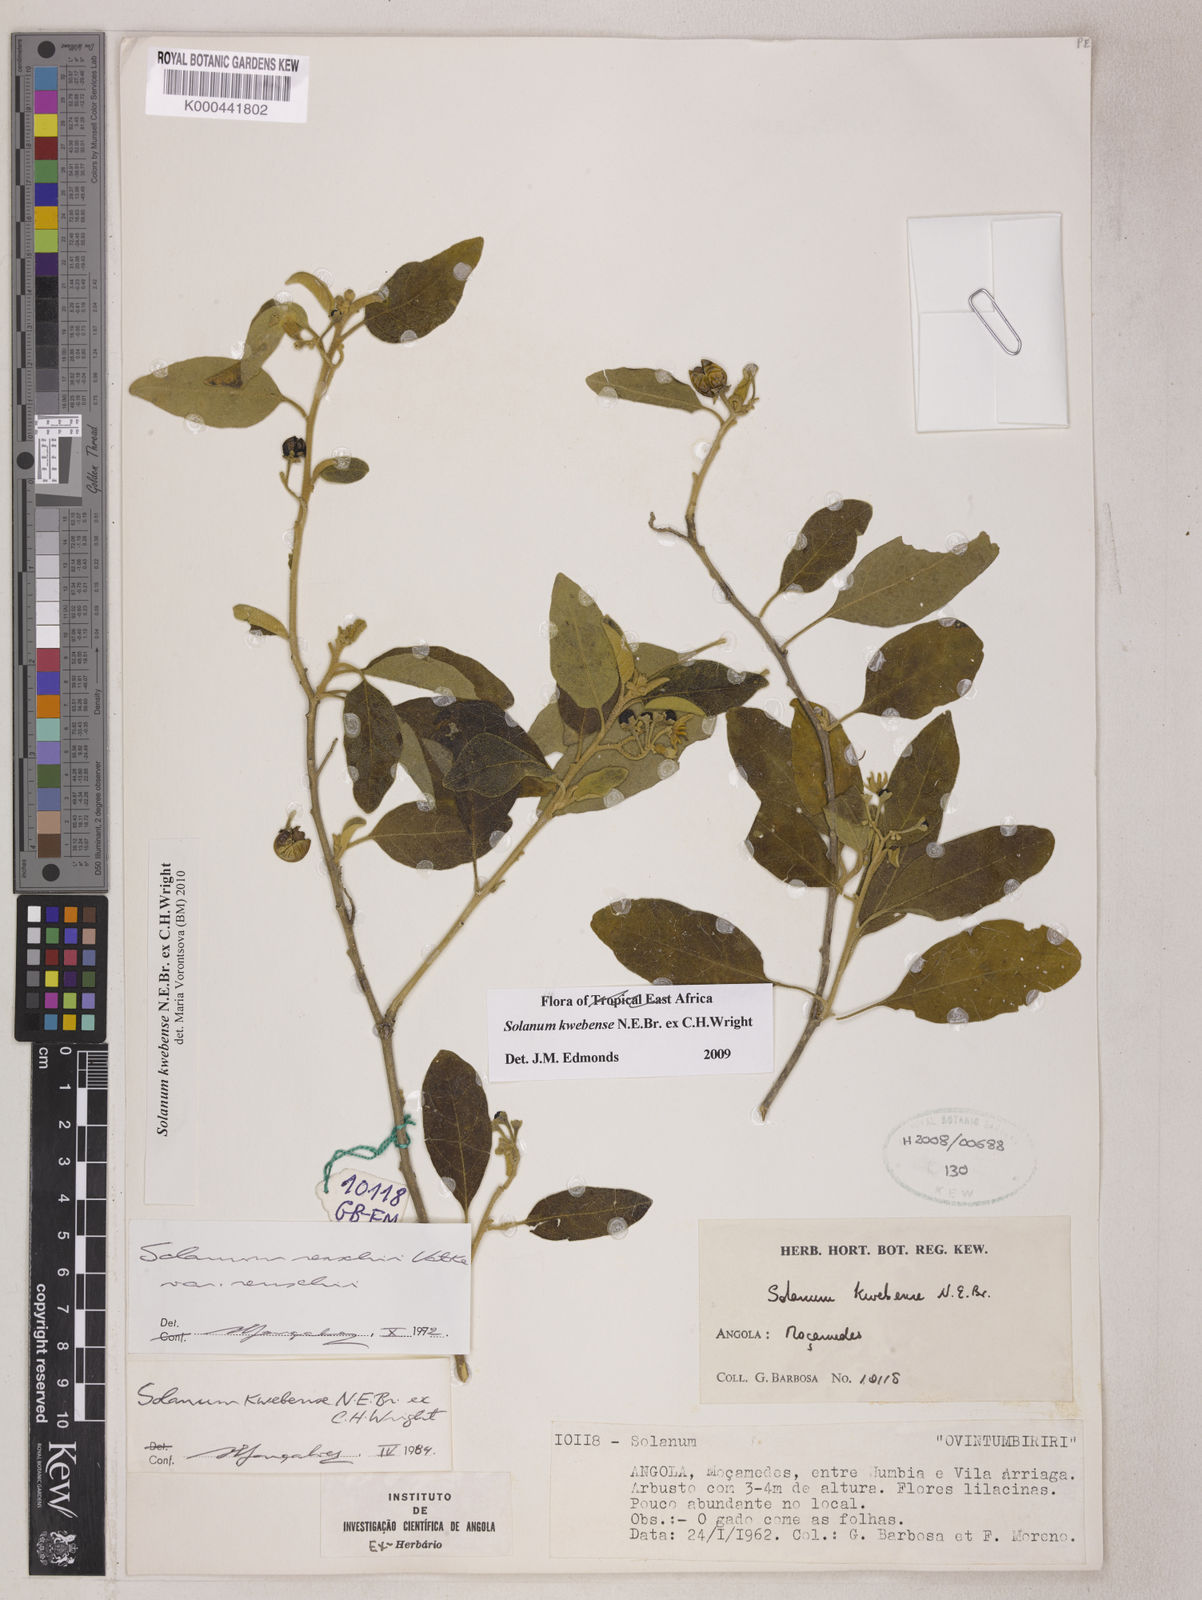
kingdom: Plantae
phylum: Tracheophyta
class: Magnoliopsida
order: Solanales
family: Solanaceae
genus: Solanum
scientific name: Solanum tettense
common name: Mozambique bitter apple
